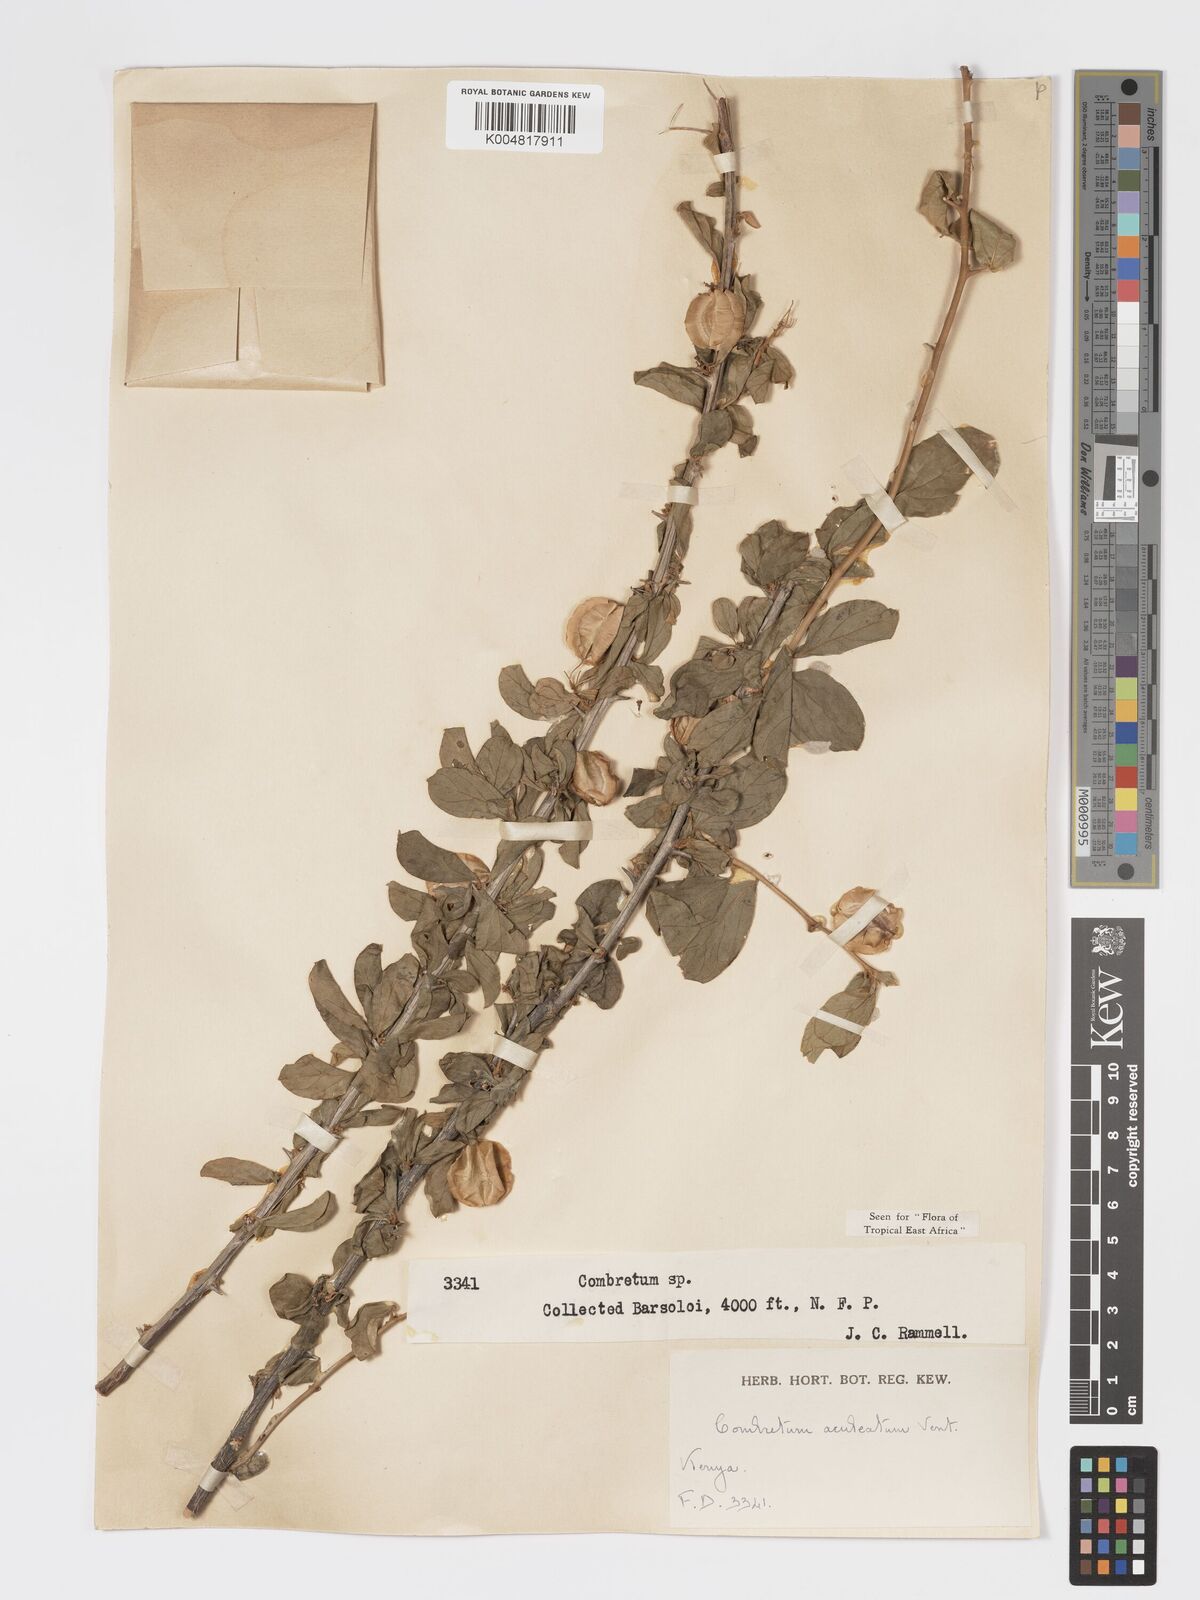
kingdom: Plantae
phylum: Tracheophyta
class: Magnoliopsida
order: Myrtales
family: Combretaceae
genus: Combretum
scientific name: Combretum aculeatum
